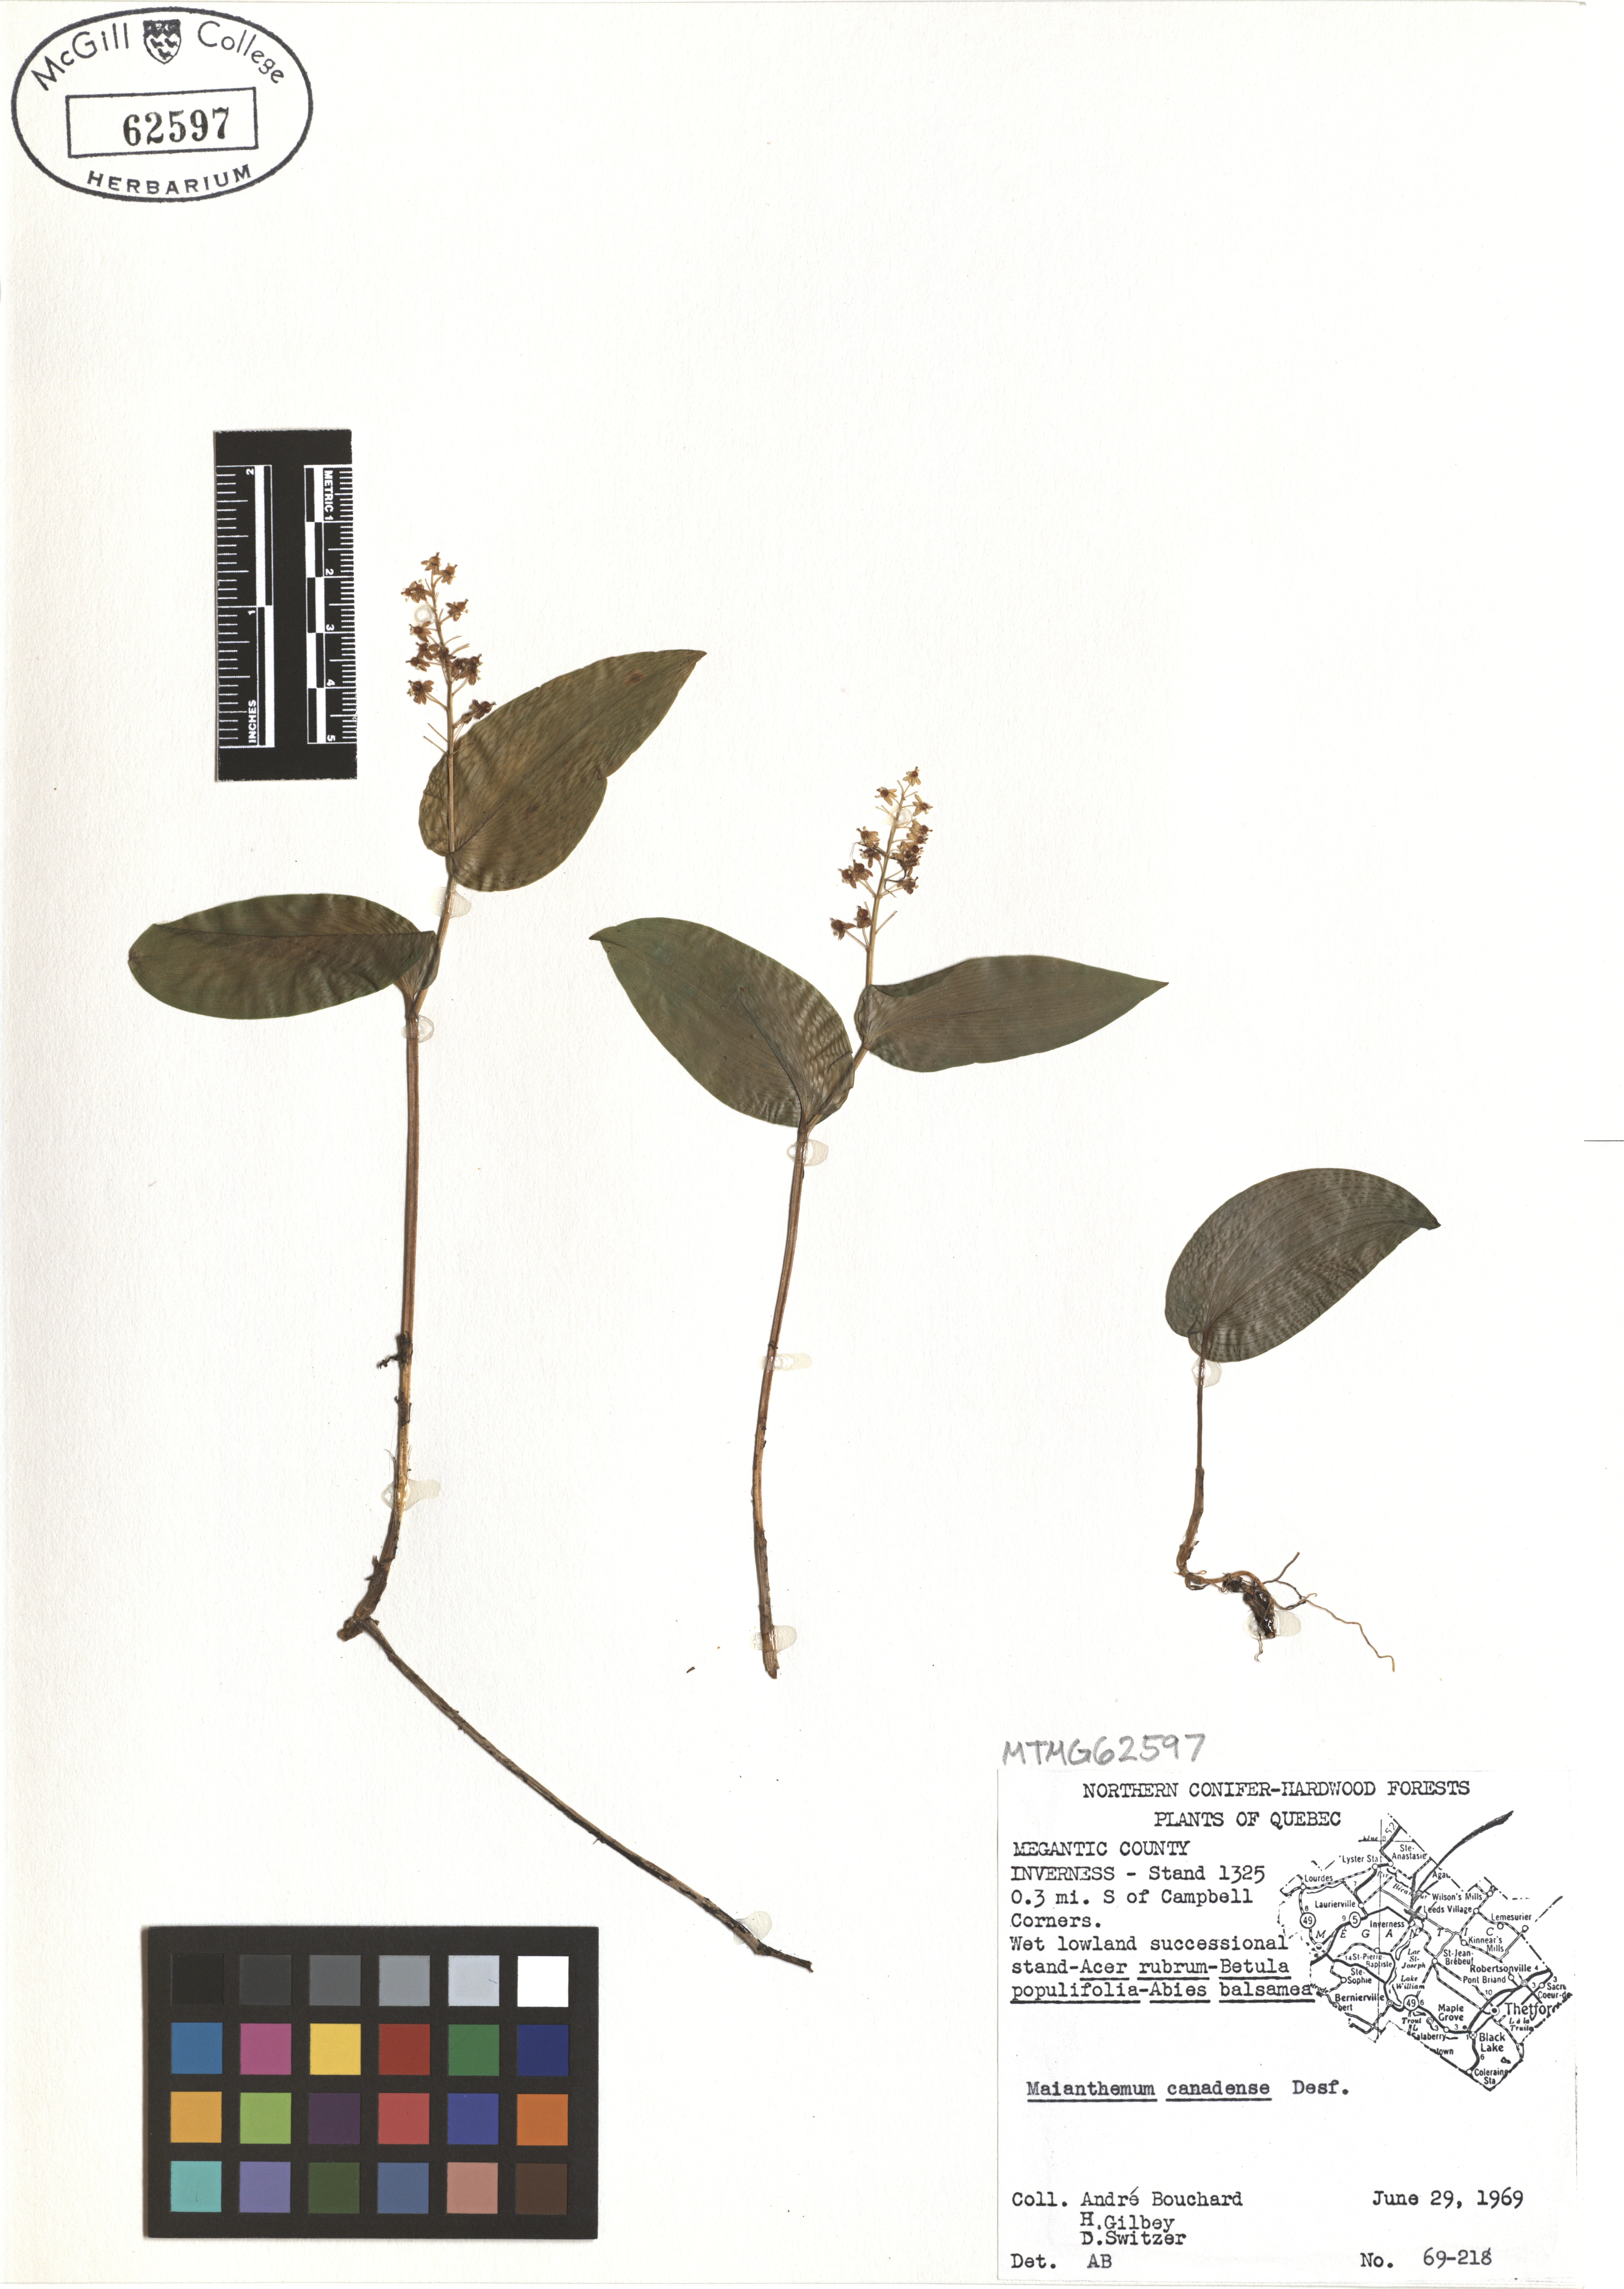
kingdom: Plantae
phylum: Tracheophyta
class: Liliopsida
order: Asparagales
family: Asparagaceae
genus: Maianthemum
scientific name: Maianthemum canadense
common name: False lily-of-the-valley
